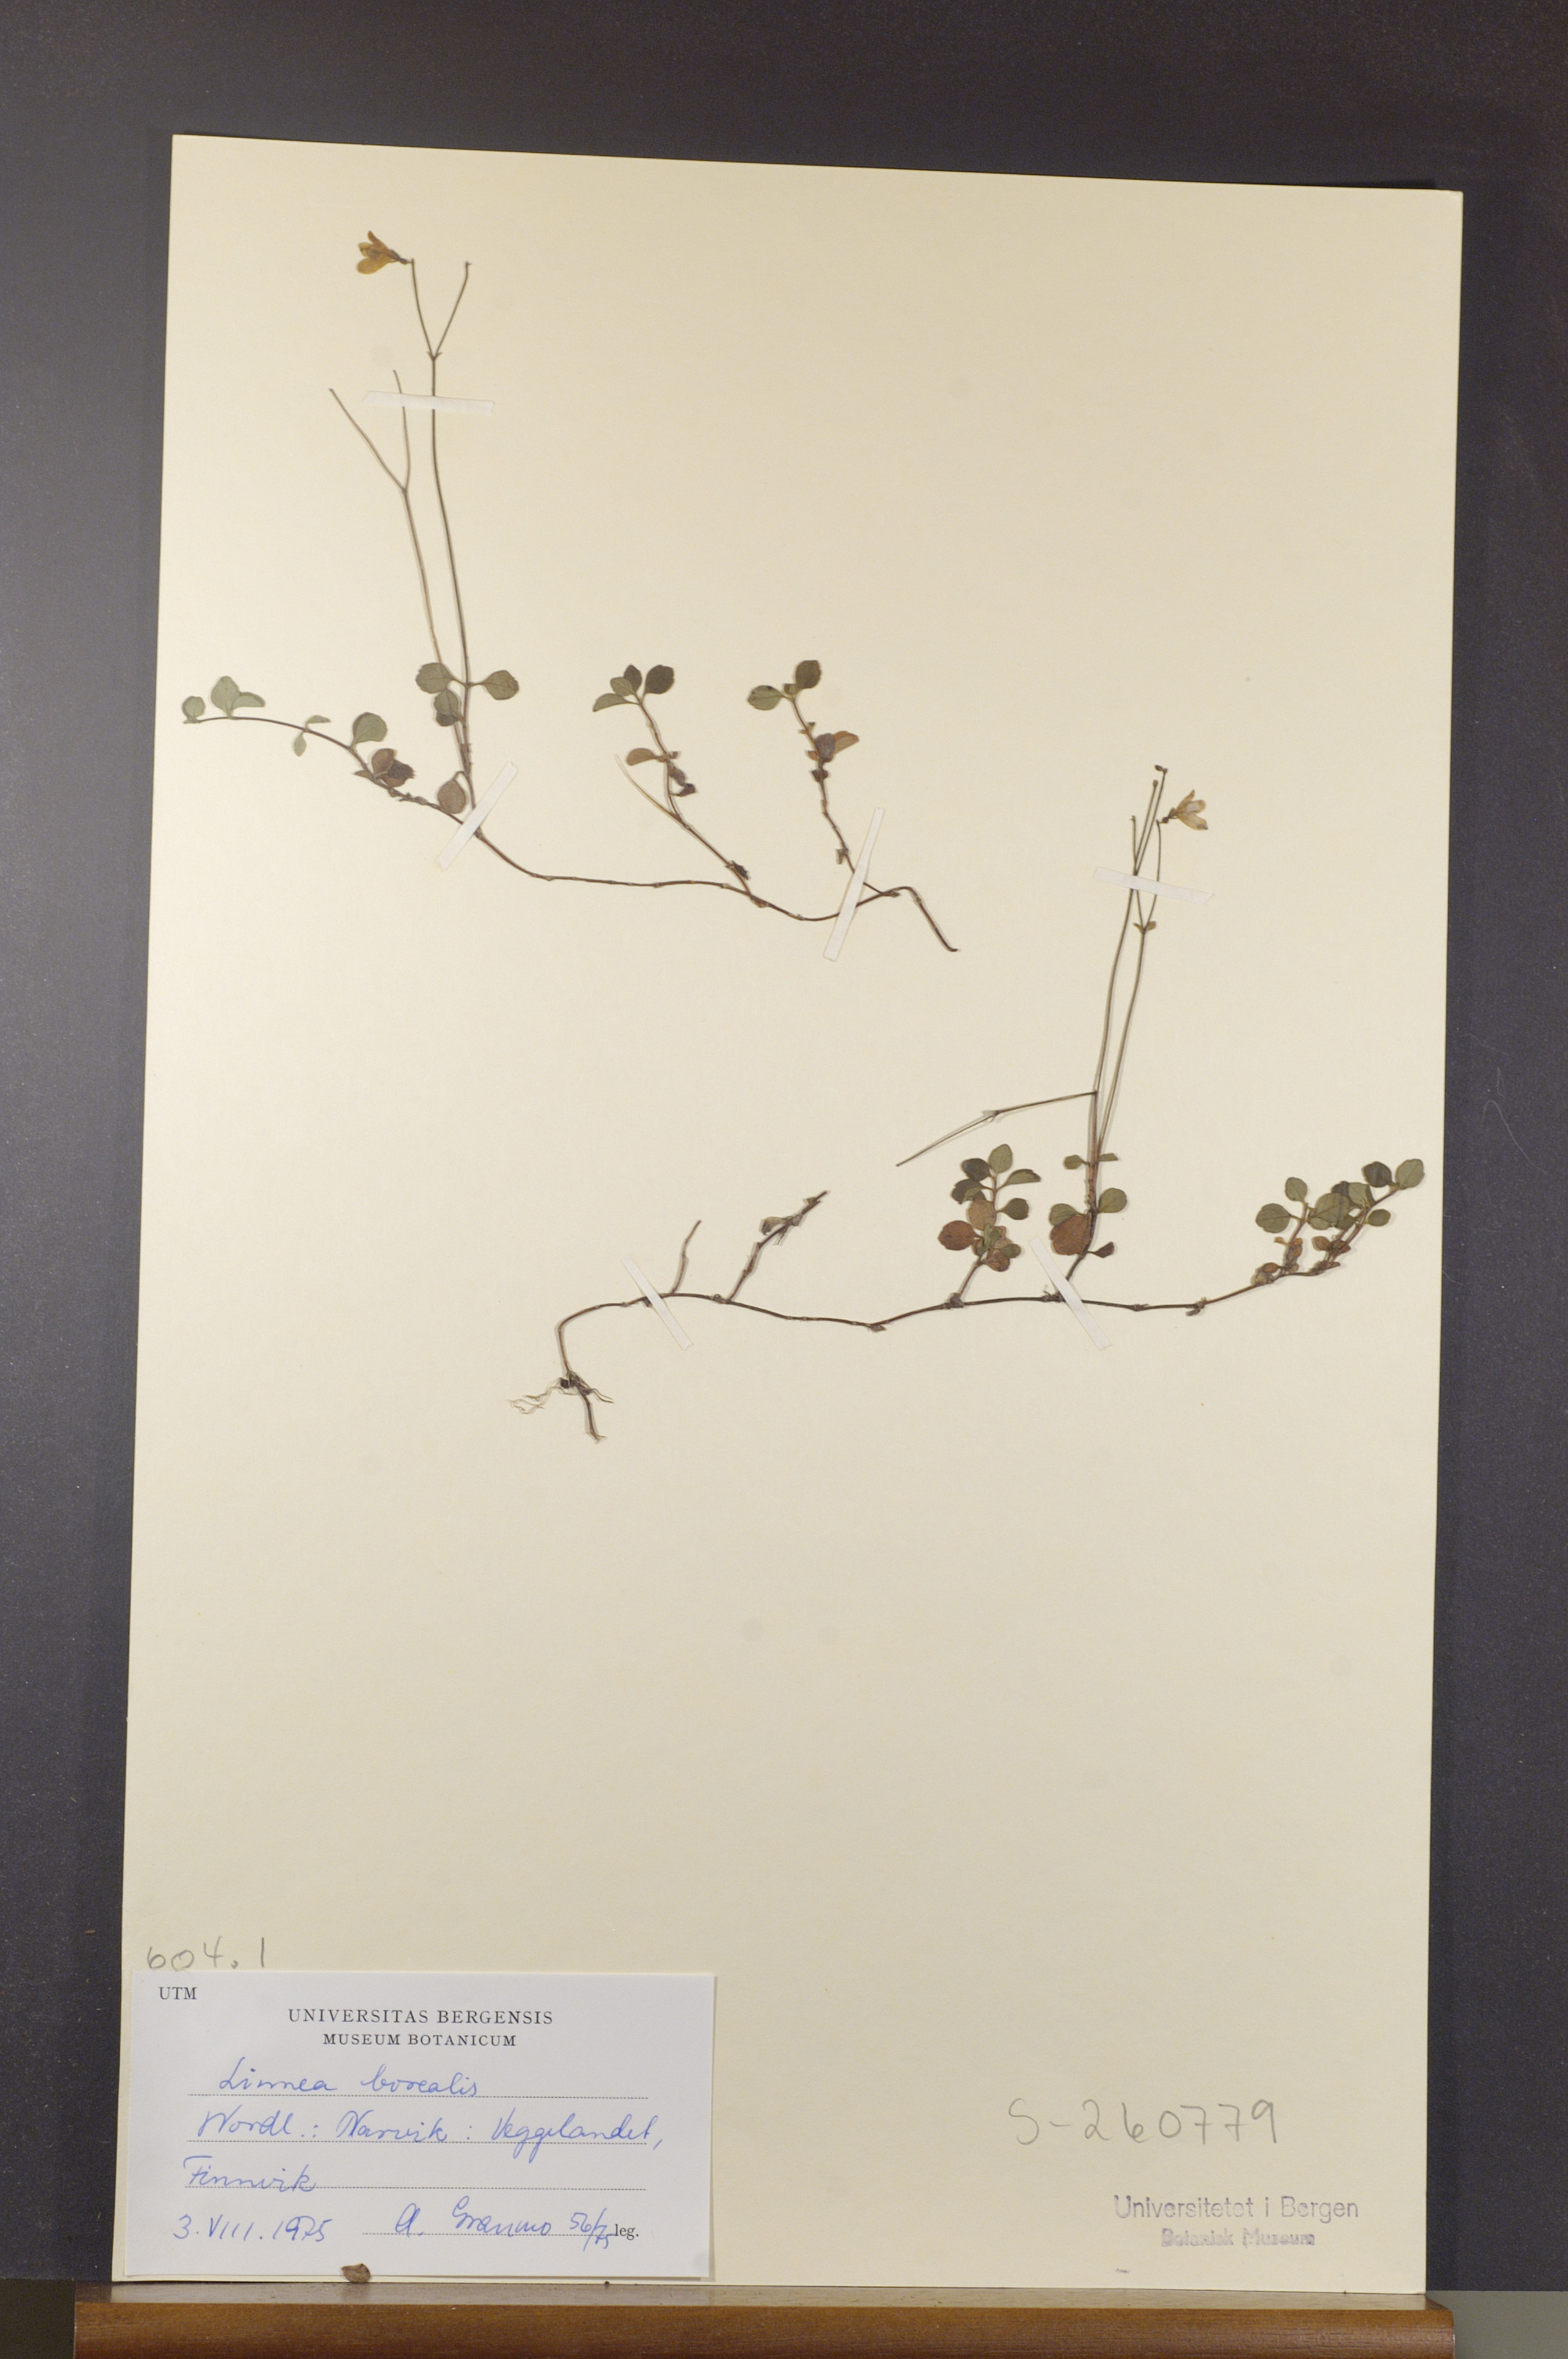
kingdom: Plantae
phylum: Tracheophyta
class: Magnoliopsida
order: Dipsacales
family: Caprifoliaceae
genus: Linnaea
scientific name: Linnaea borealis
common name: Twinflower
